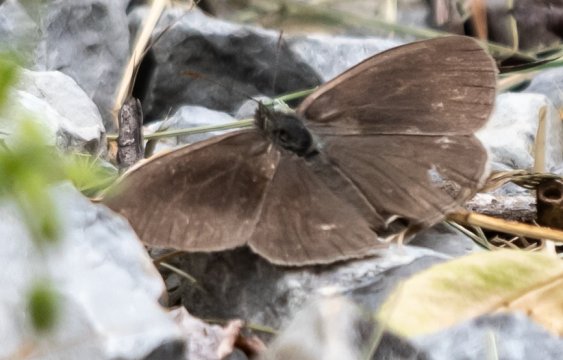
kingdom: Animalia
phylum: Arthropoda
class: Insecta
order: Lepidoptera
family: Papilionidae
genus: Pterourus
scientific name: Pterourus glaucus
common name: Eastern Tiger Swallowtail
